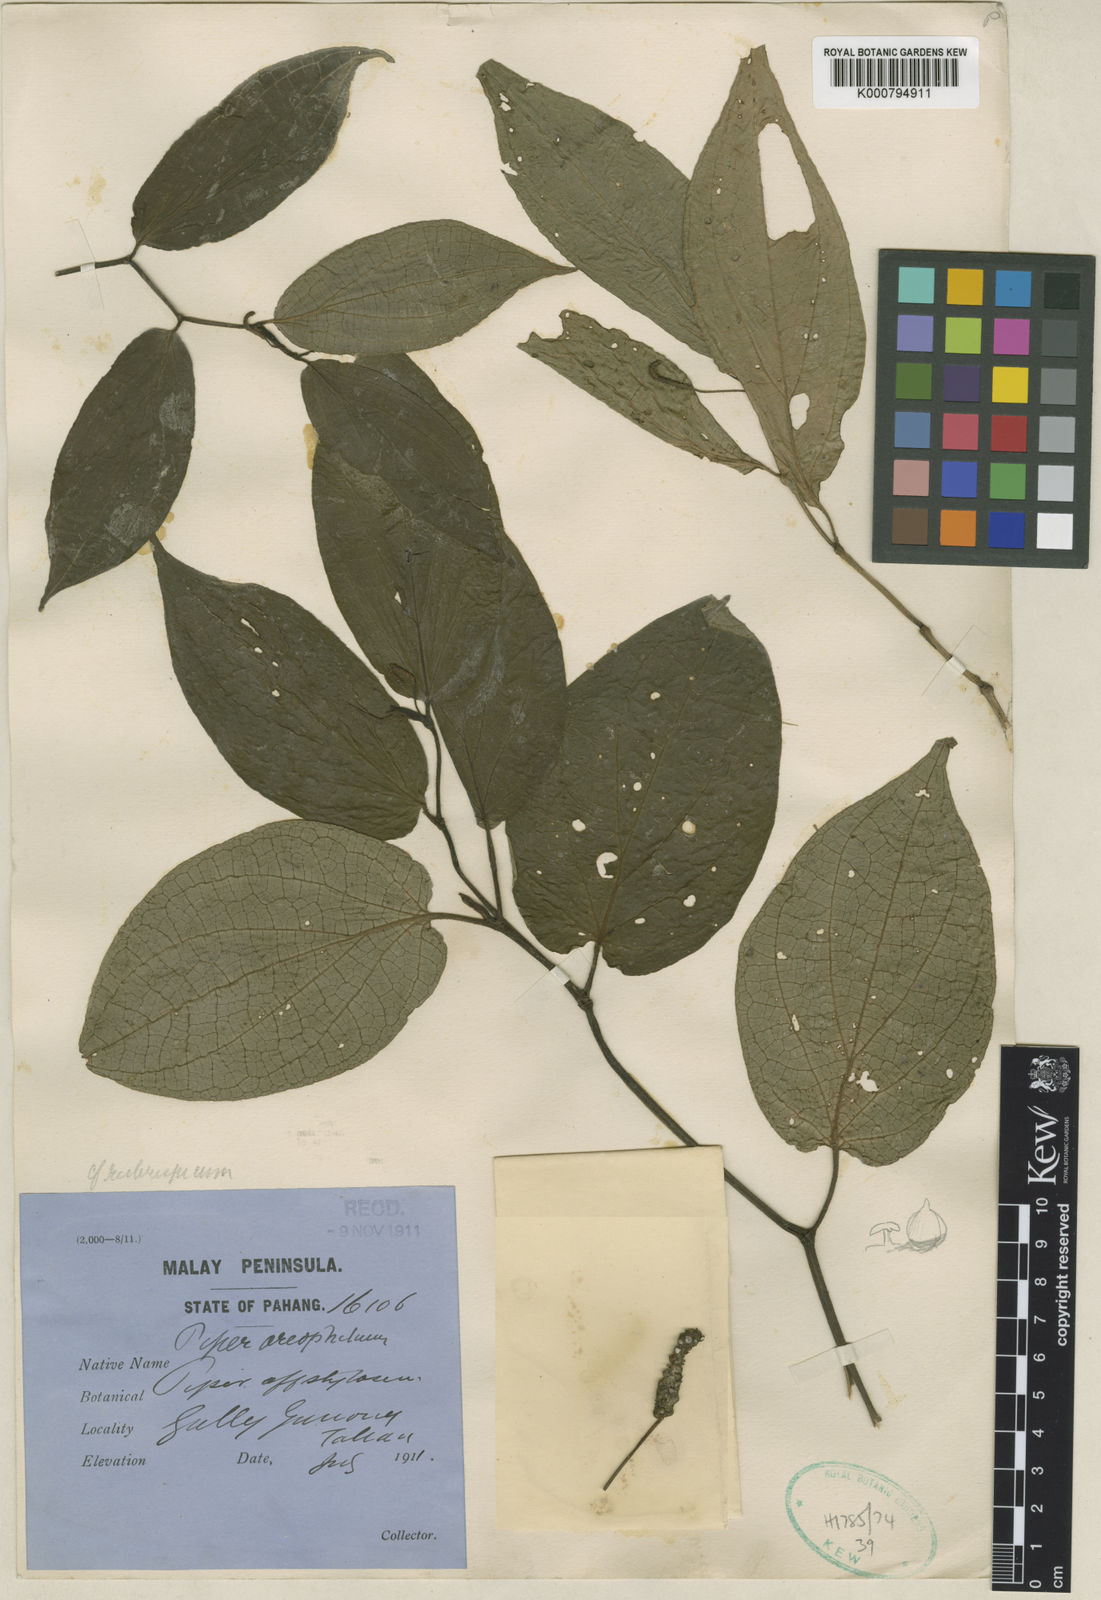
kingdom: Plantae
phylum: Tracheophyta
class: Magnoliopsida
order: Piperales
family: Piperaceae
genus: Piper
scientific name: Piper oreophilum
